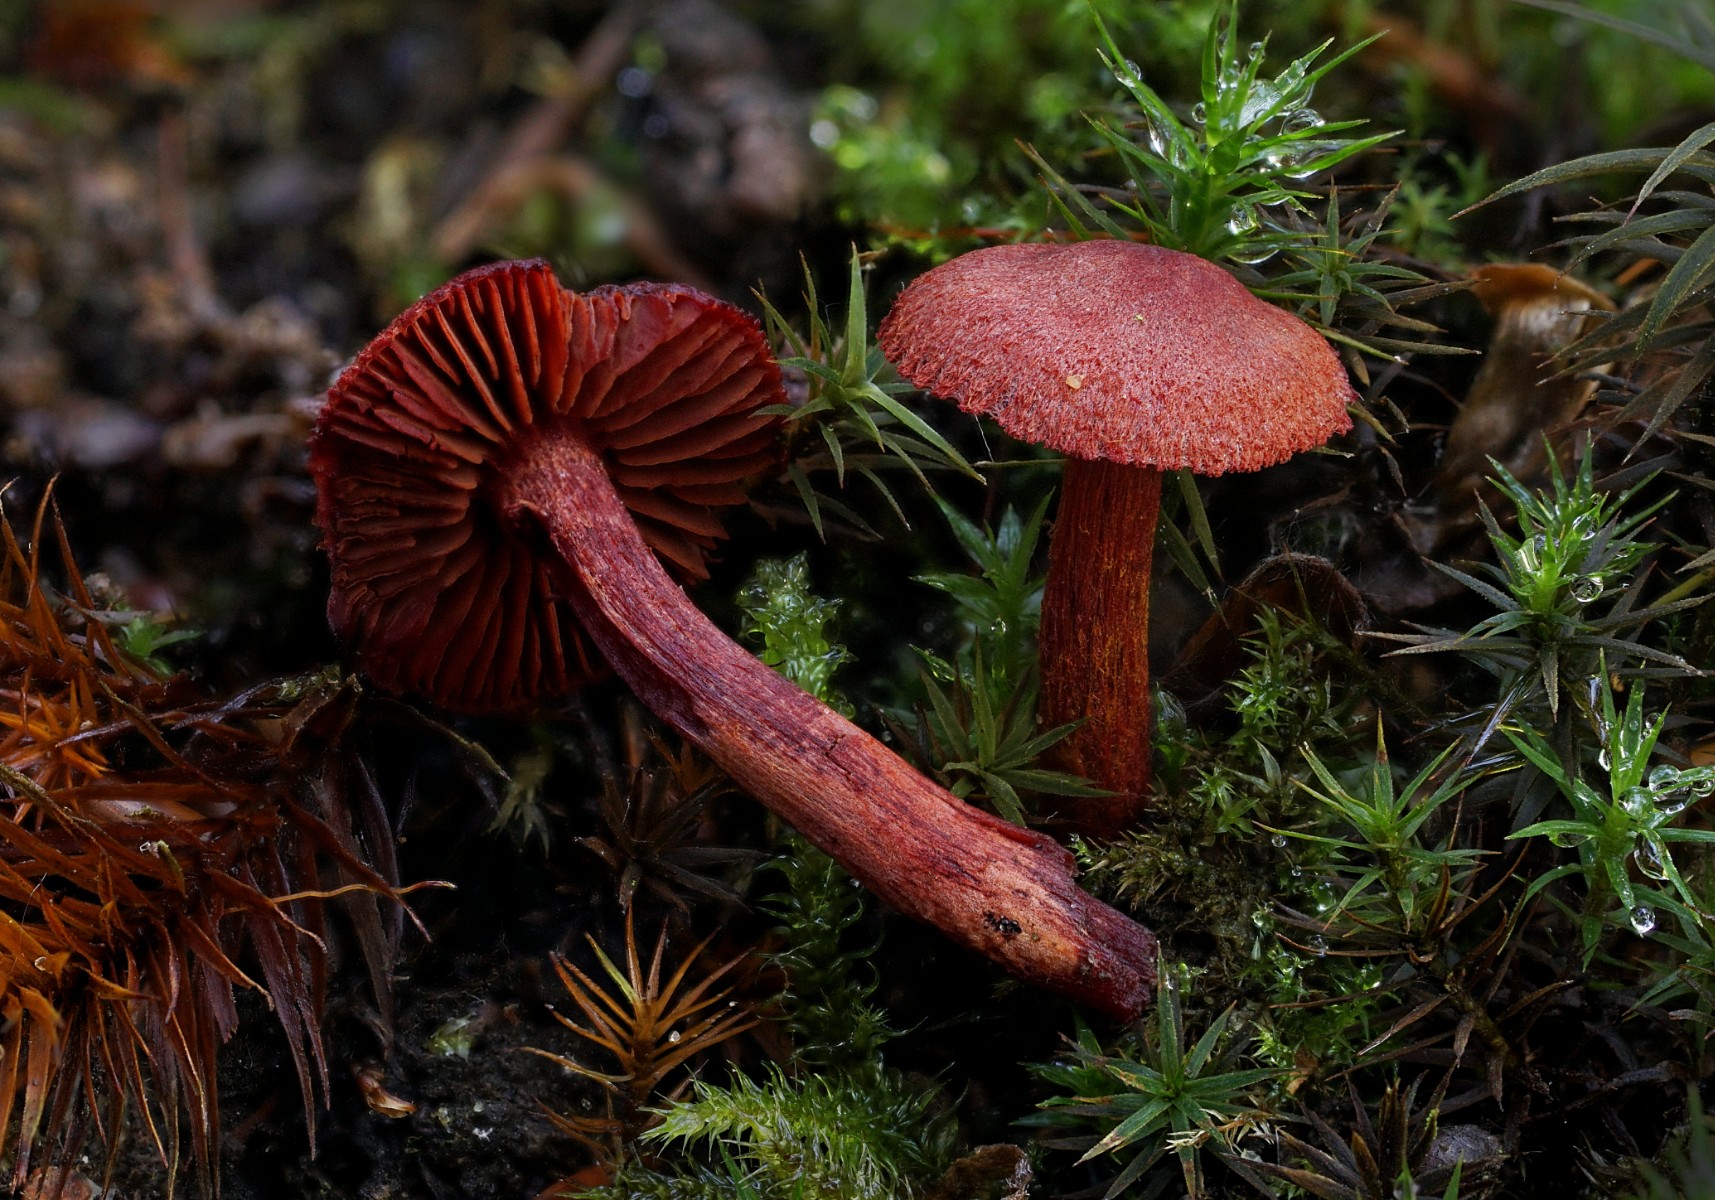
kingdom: Fungi
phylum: Basidiomycota
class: Agaricomycetes
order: Agaricales
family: Cortinariaceae
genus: Cortinarius
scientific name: Cortinarius sanguineus
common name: Bloodred webcap
